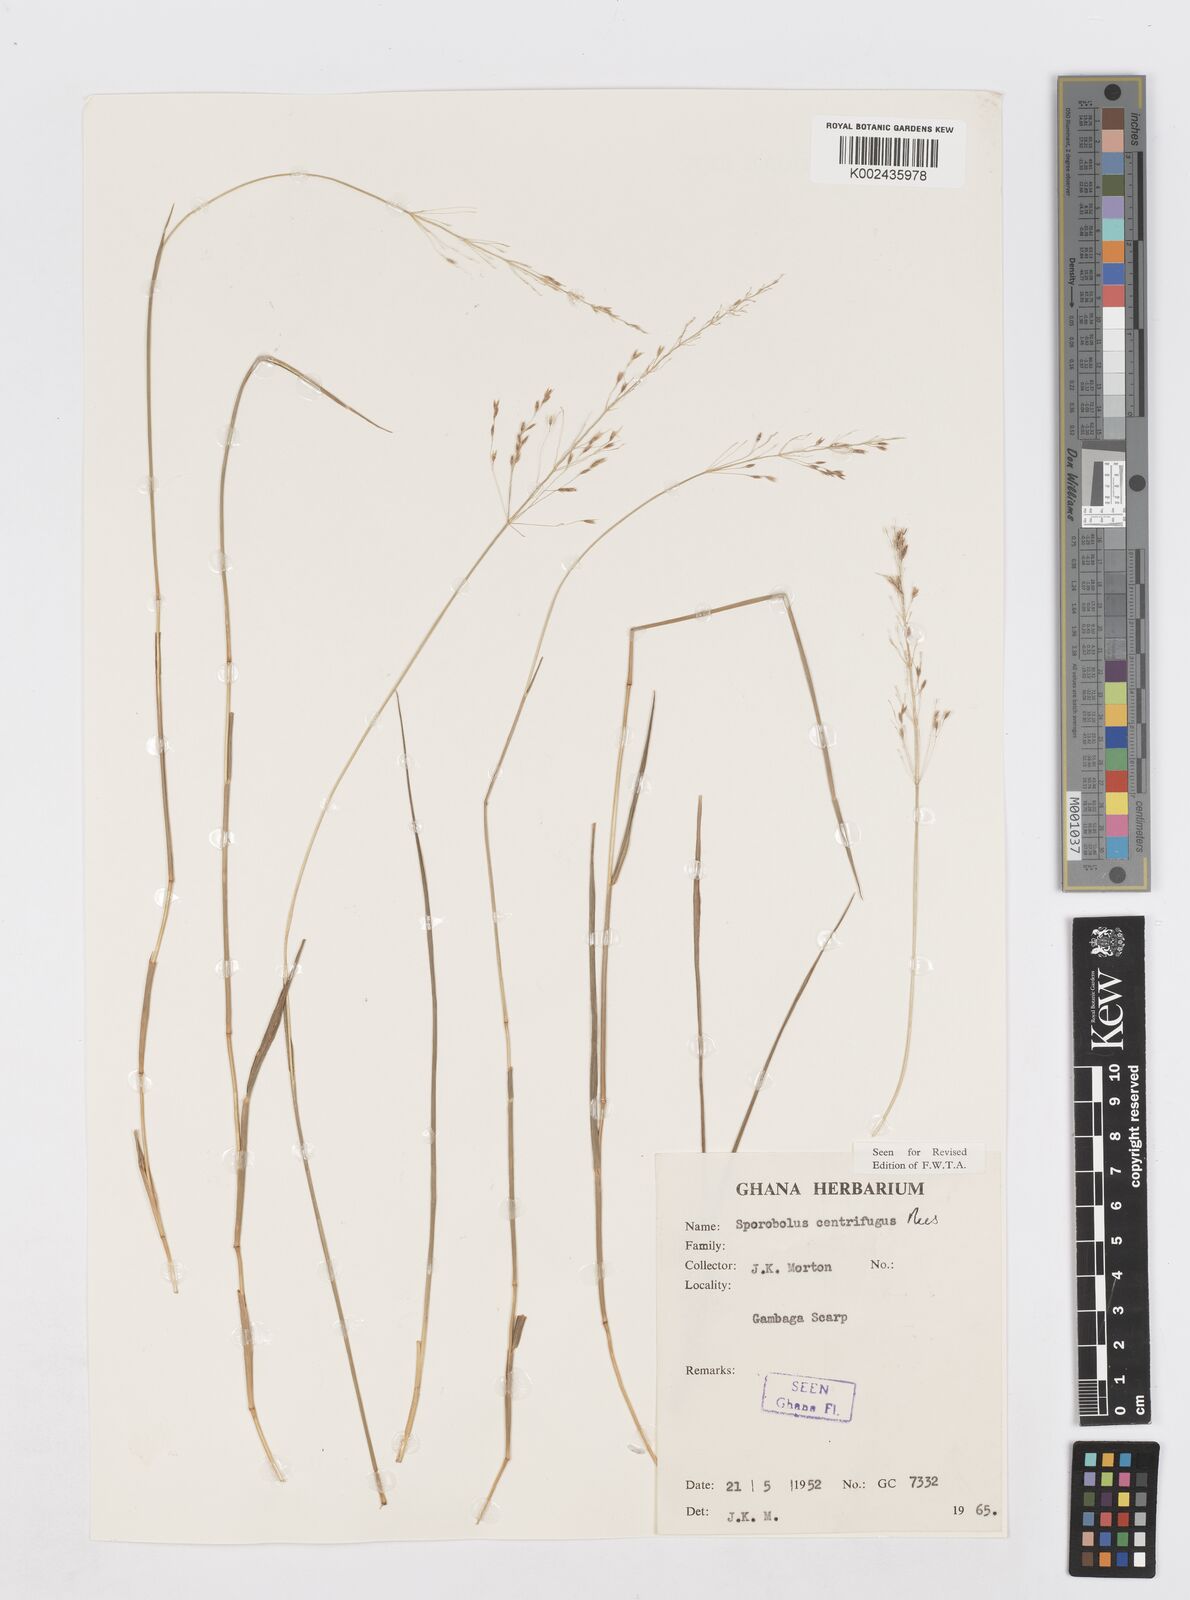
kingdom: Plantae
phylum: Tracheophyta
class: Liliopsida
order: Poales
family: Poaceae
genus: Sporobolus
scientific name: Sporobolus subulatus
